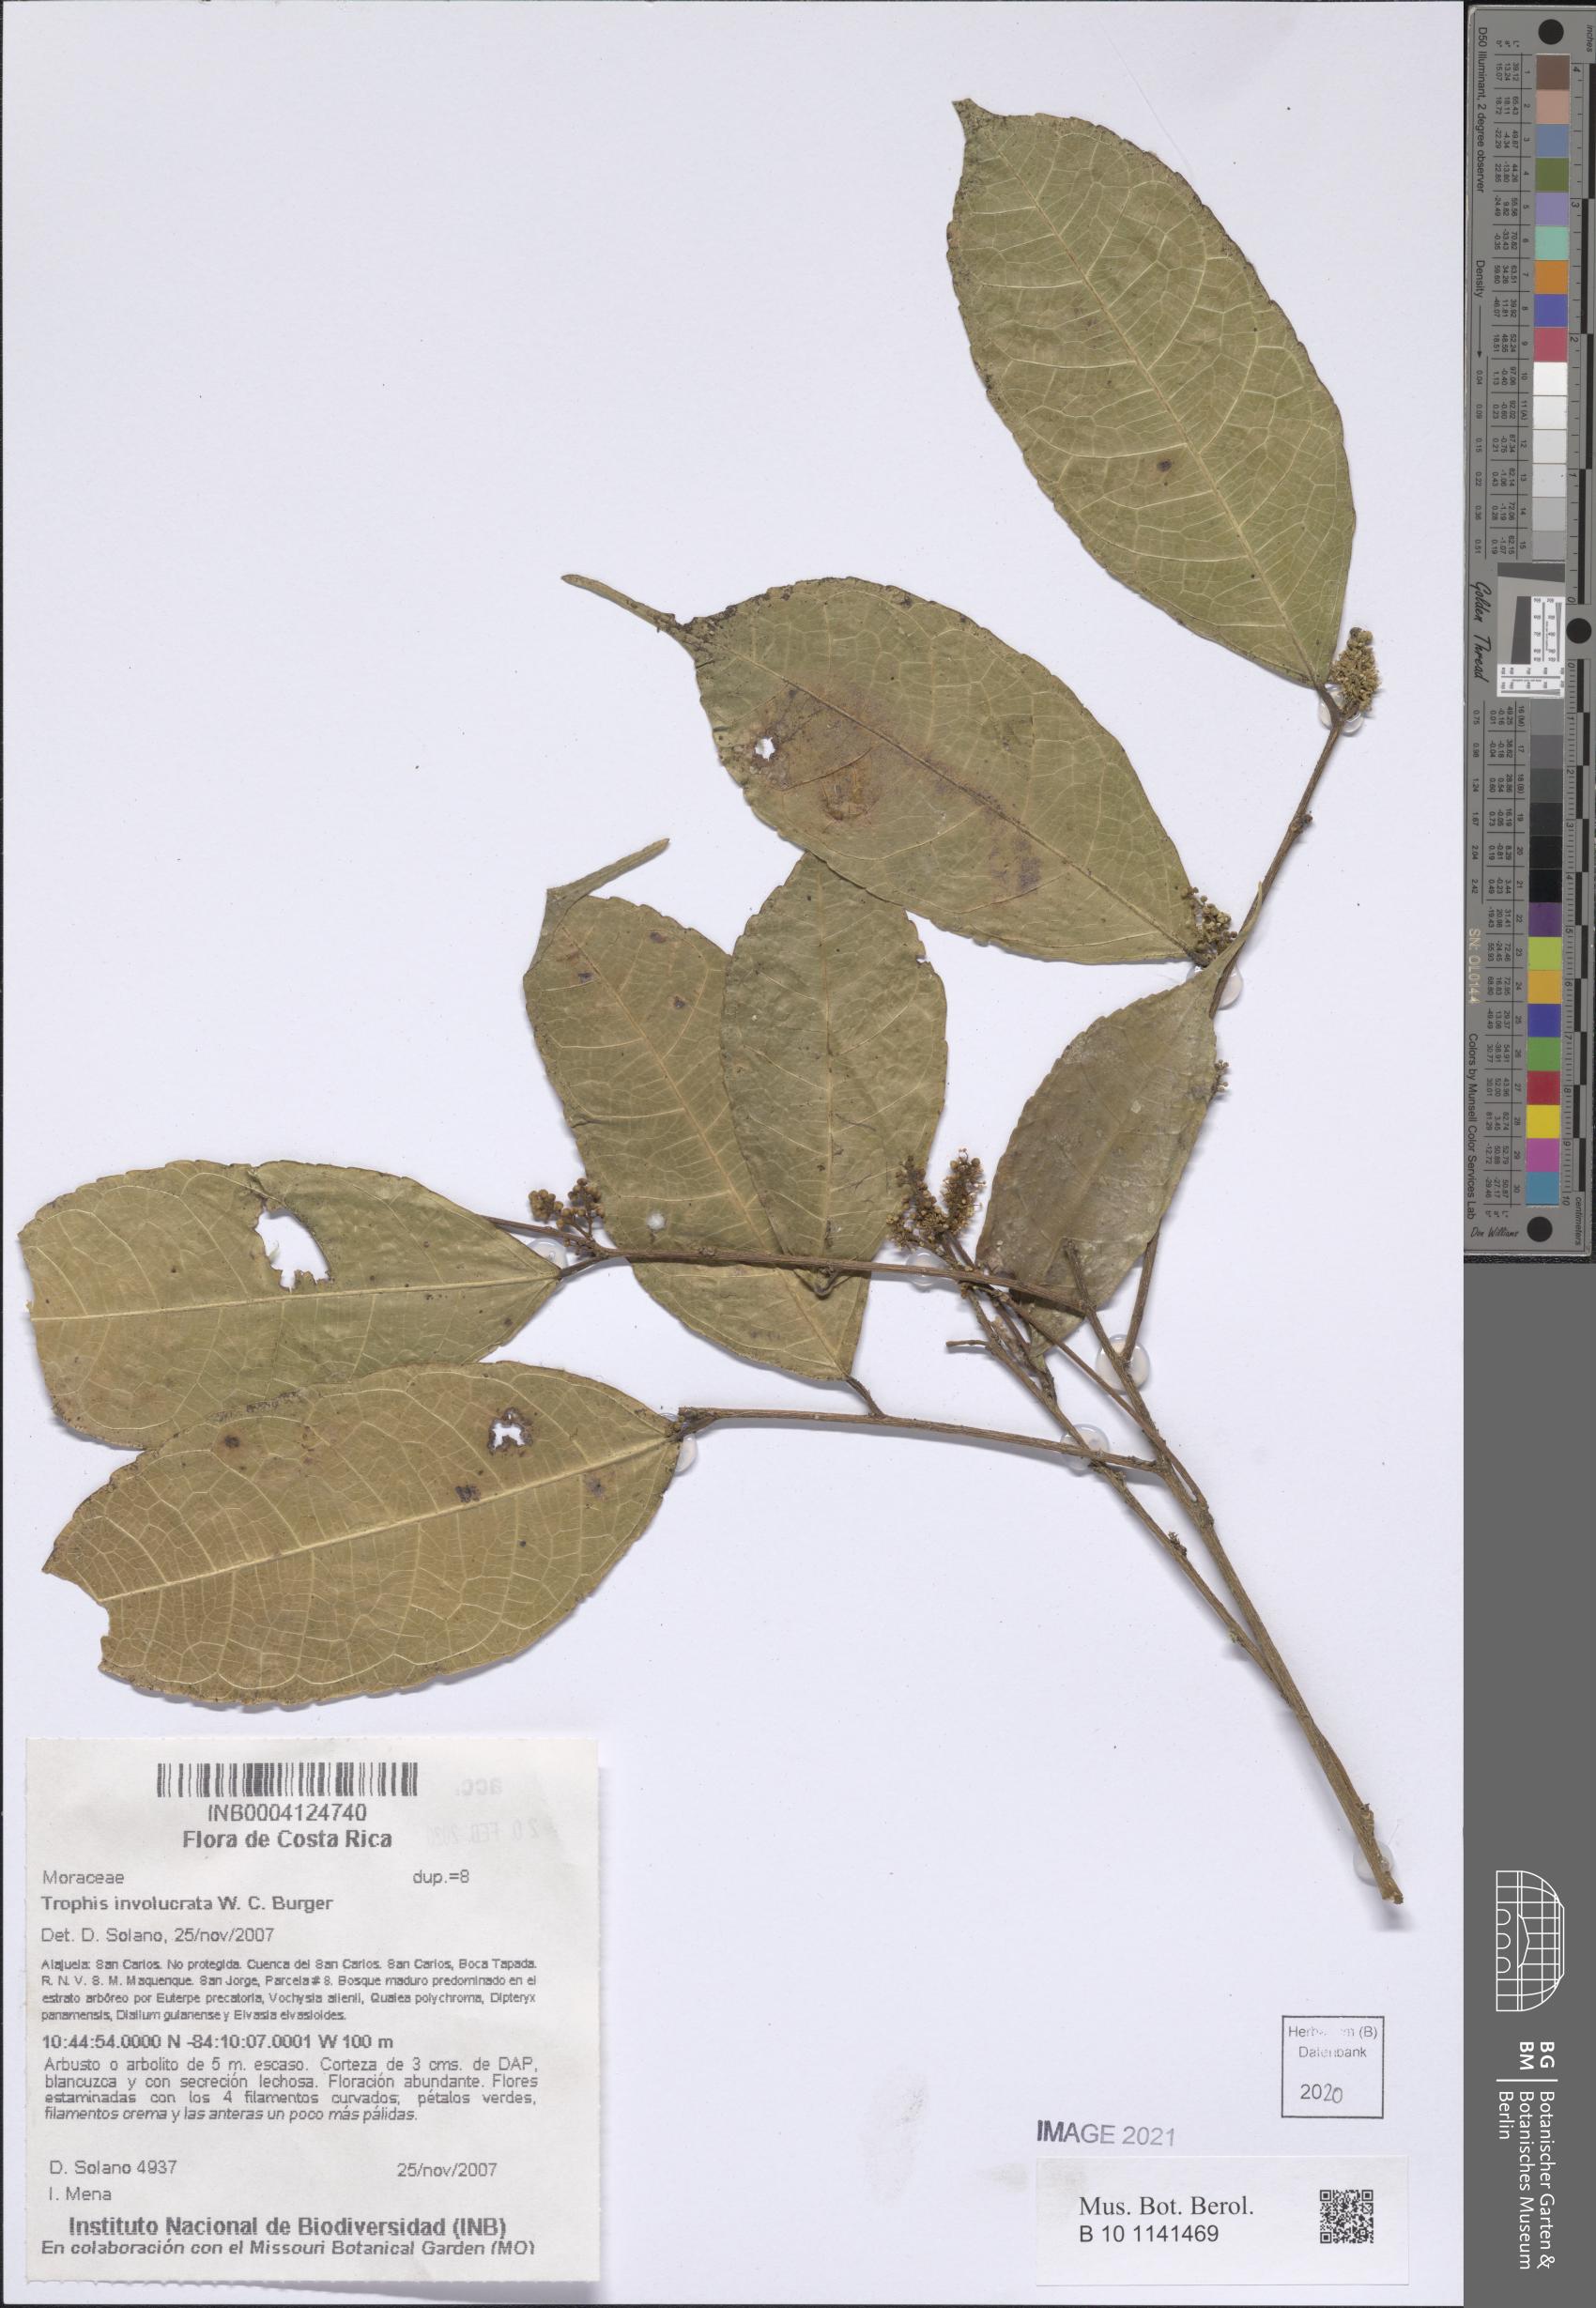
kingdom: Plantae
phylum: Tracheophyta
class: Magnoliopsida
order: Rosales
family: Moraceae
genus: Trophis
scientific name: Trophis involucrata
